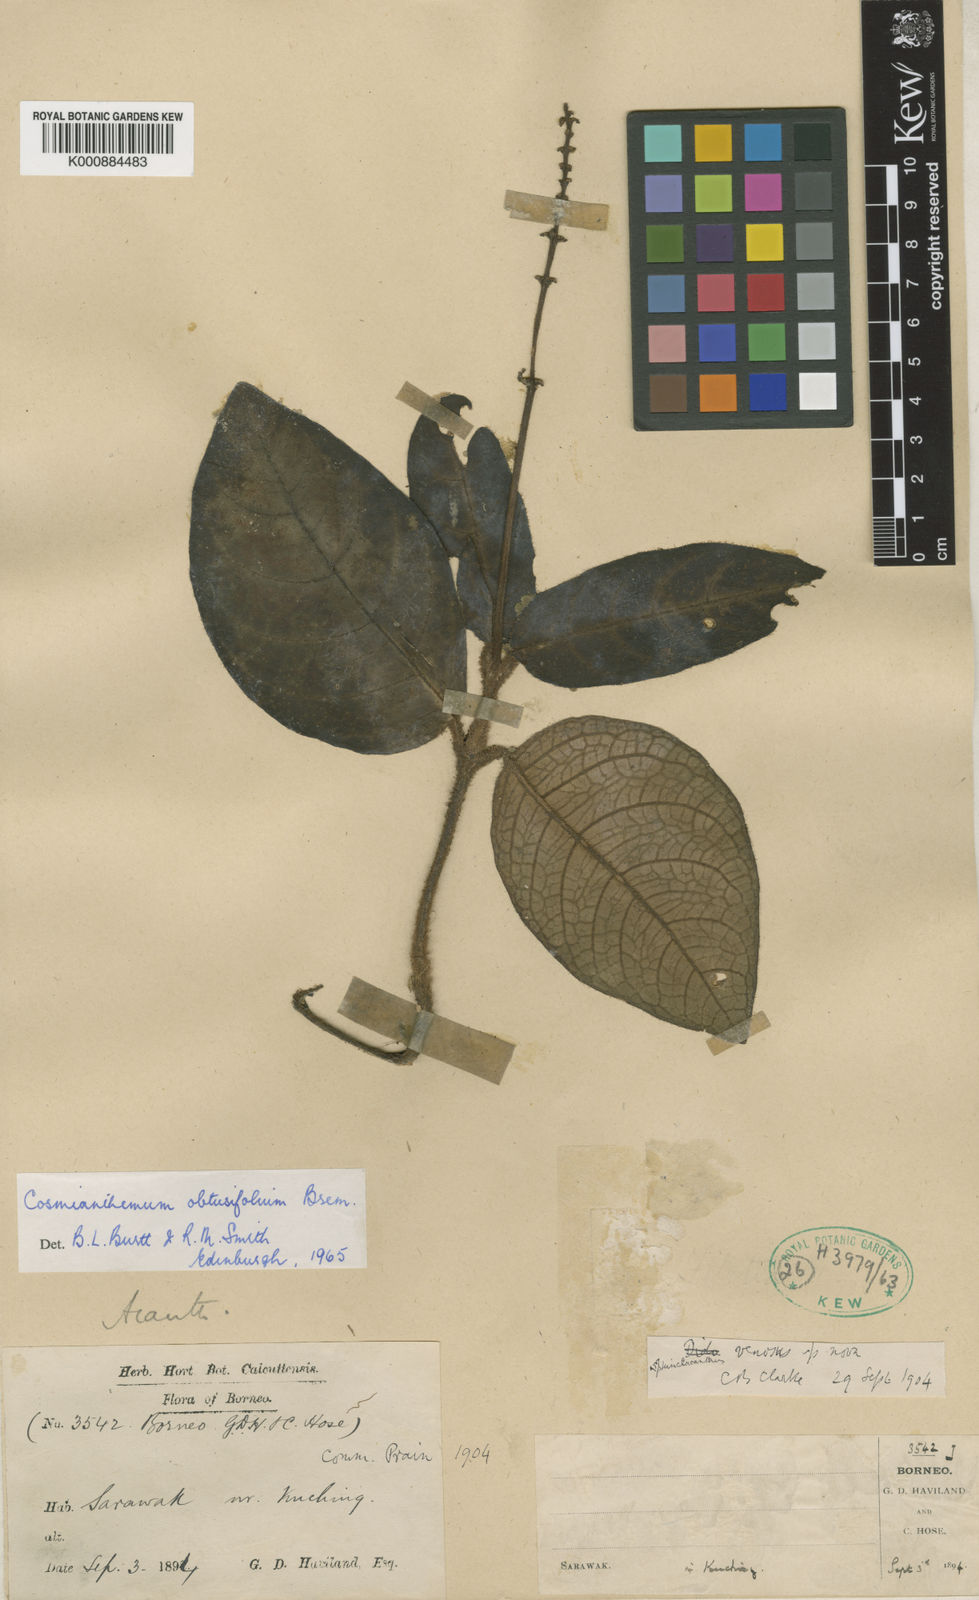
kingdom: Plantae
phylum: Tracheophyta
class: Magnoliopsida
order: Lamiales
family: Acanthaceae
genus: Cosmianthemum
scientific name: Cosmianthemum obtusifolium
